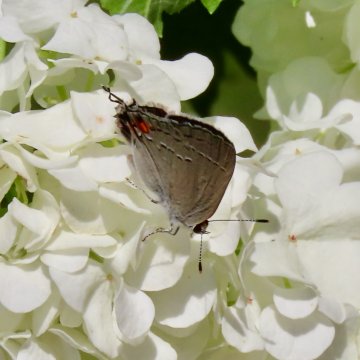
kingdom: Animalia
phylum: Arthropoda
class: Insecta
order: Lepidoptera
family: Lycaenidae
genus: Strymon
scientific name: Strymon melinus
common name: Gray Hairstreak
